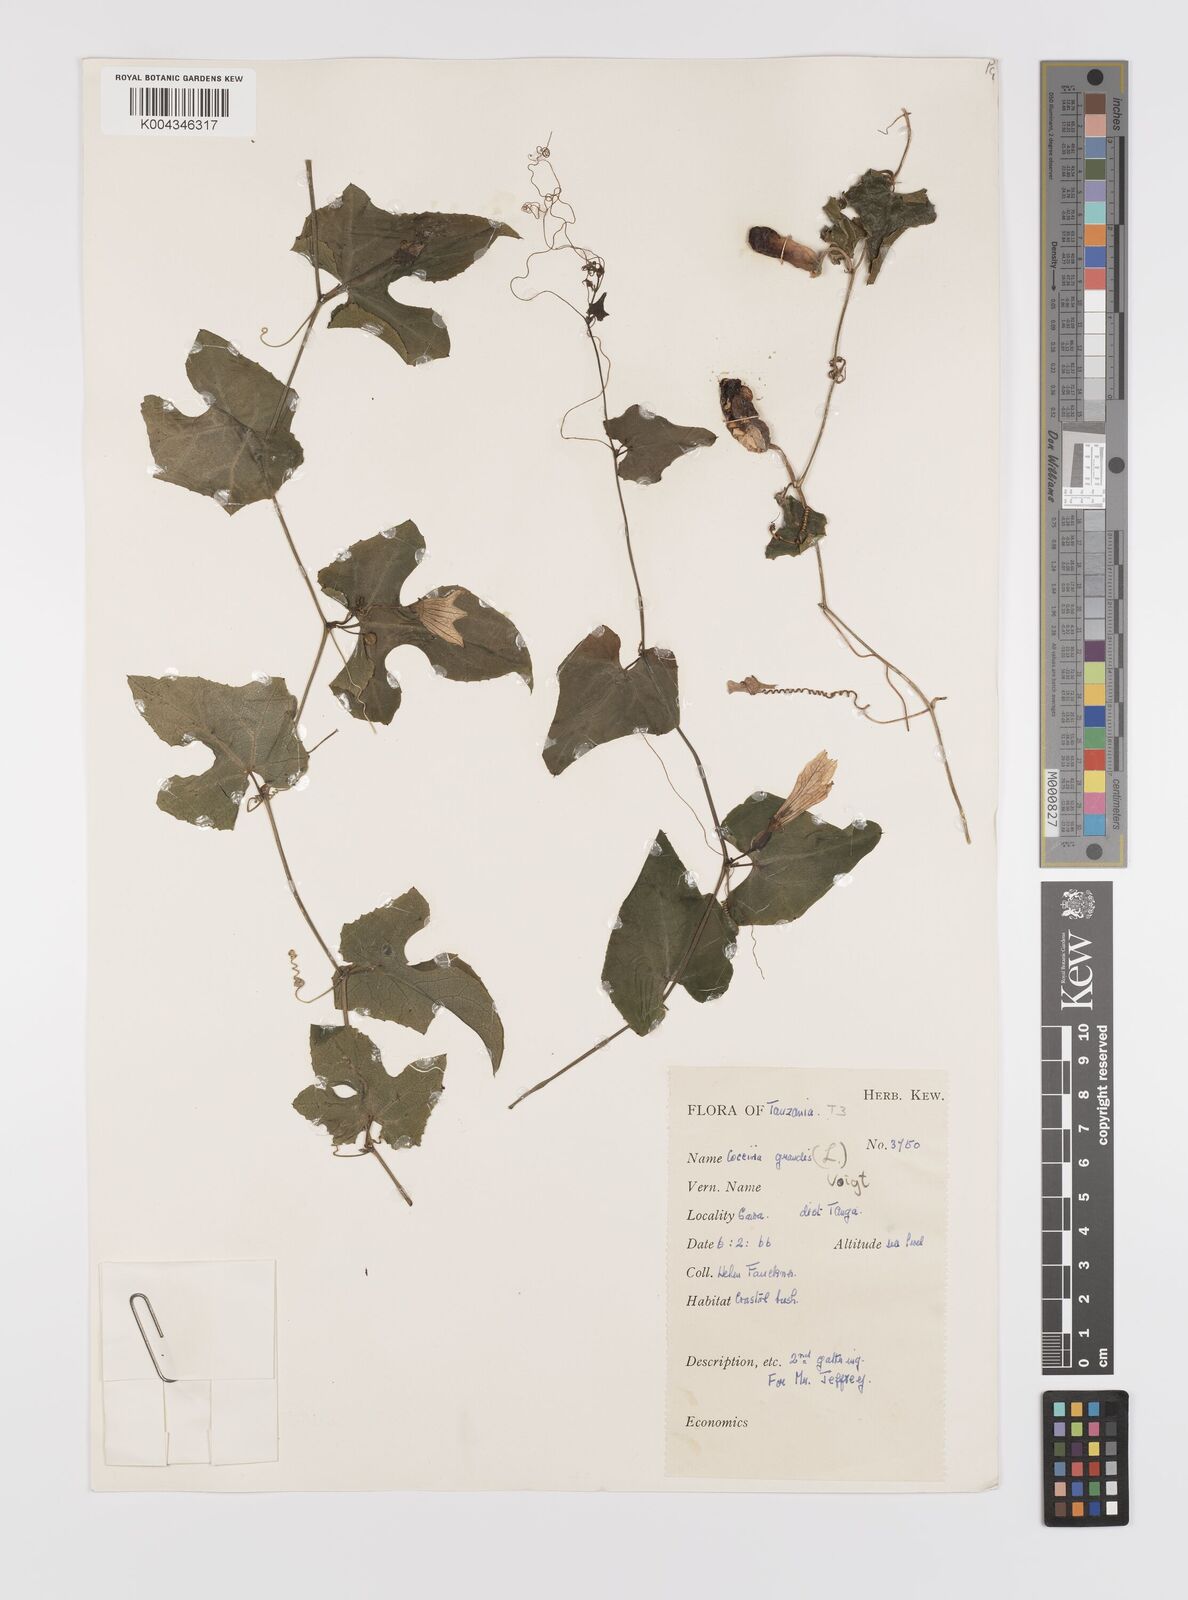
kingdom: Plantae
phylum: Tracheophyta
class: Magnoliopsida
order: Cucurbitales
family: Cucurbitaceae
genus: Coccinia
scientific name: Coccinia grandis
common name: Ivy gourd
